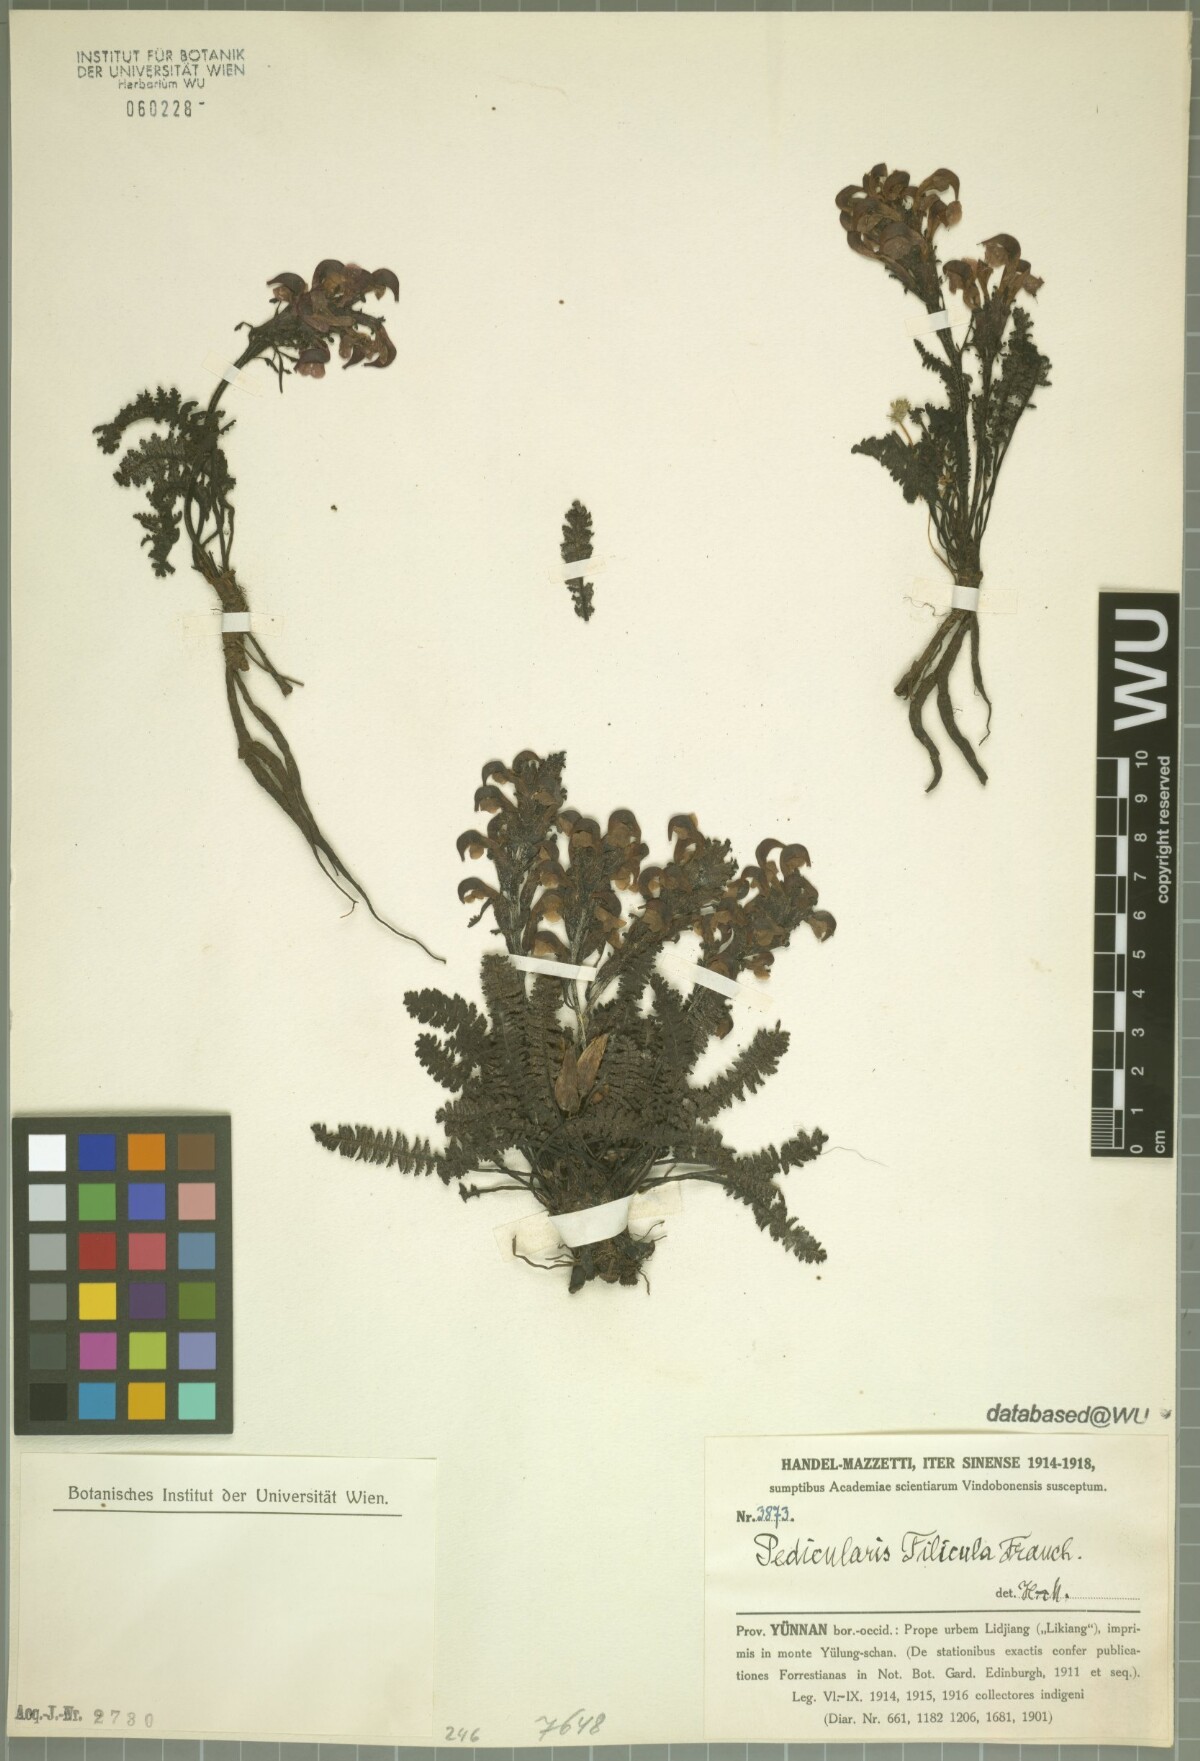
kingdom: Plantae
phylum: Tracheophyta
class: Magnoliopsida
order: Lamiales
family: Orobanchaceae
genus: Pedicularis
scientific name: Pedicularis filicula
